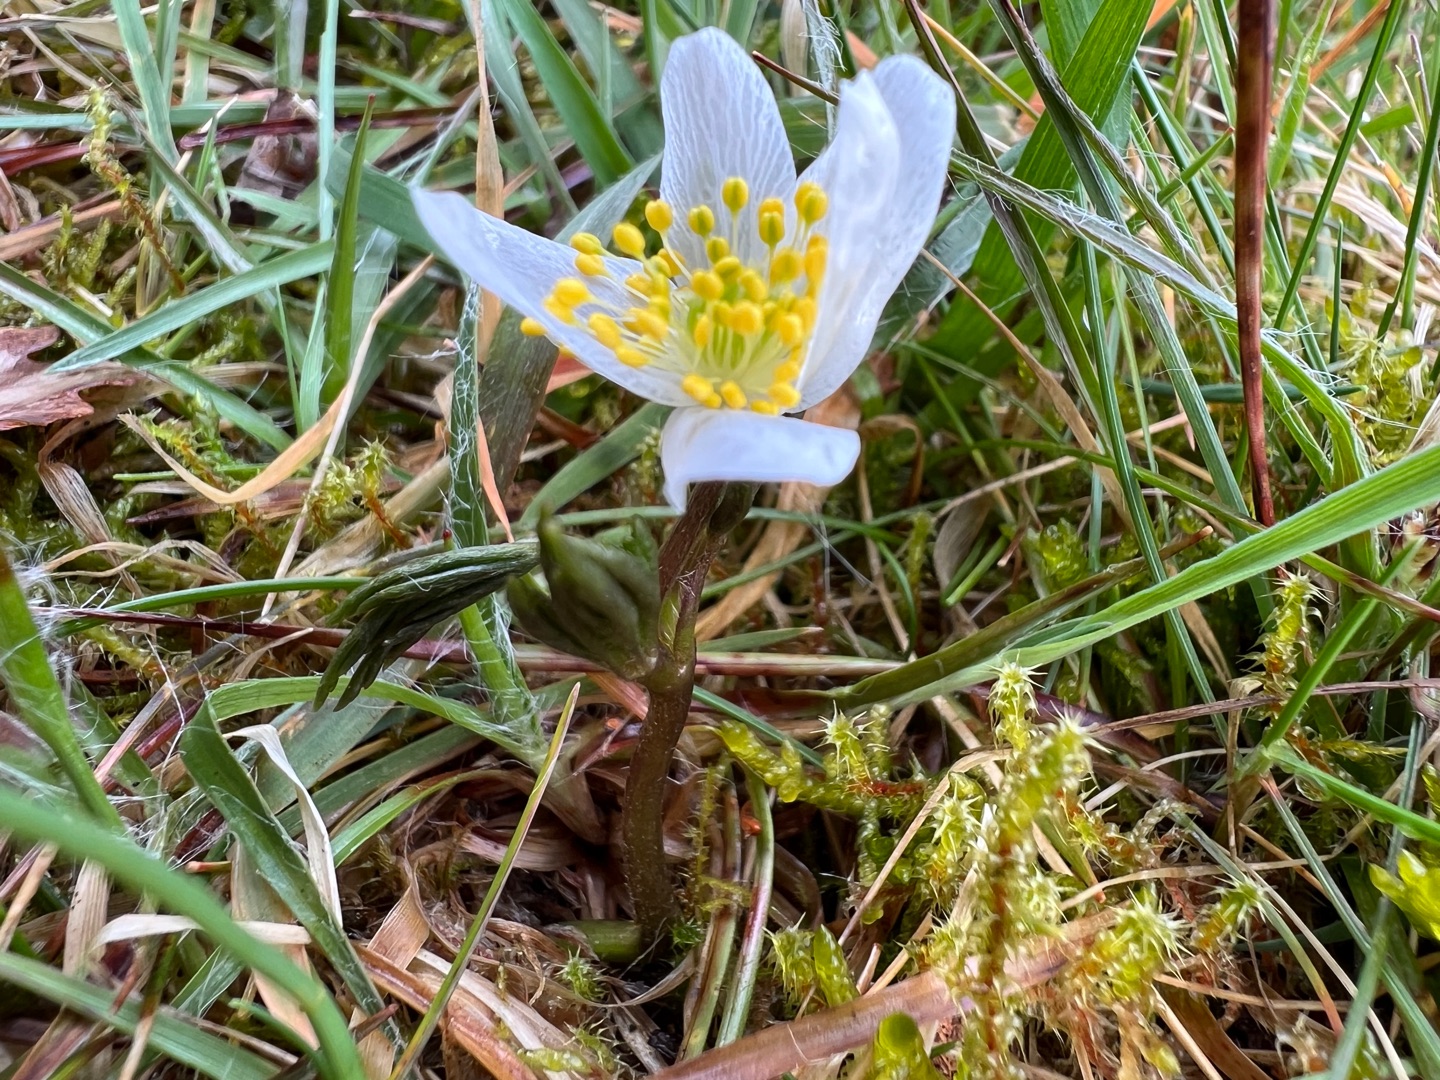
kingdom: Plantae
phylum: Tracheophyta
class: Magnoliopsida
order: Ranunculales
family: Ranunculaceae
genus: Anemone
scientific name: Anemone nemorosa
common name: Hvid anemone
